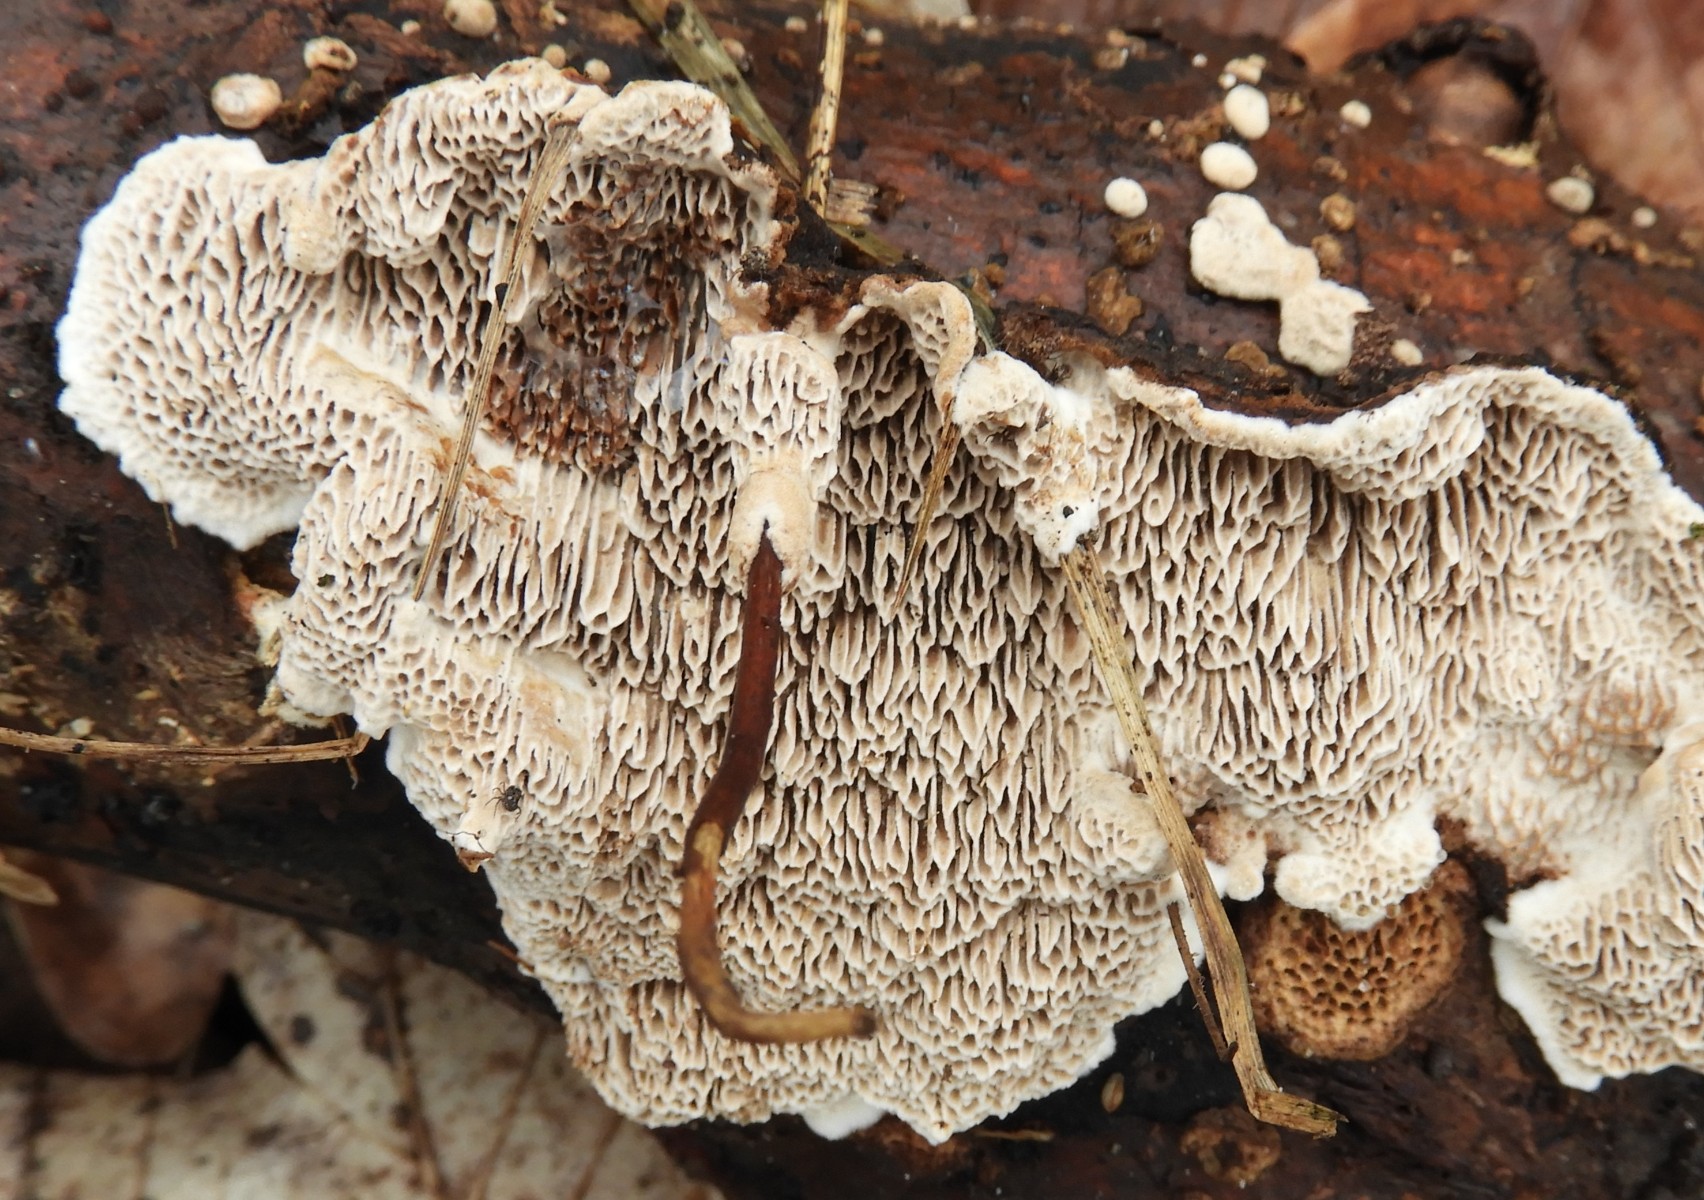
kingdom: Fungi
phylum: Basidiomycota
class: Agaricomycetes
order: Polyporales
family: Polyporaceae
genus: Podofomes
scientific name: Podofomes mollis
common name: blød begporesvamp
